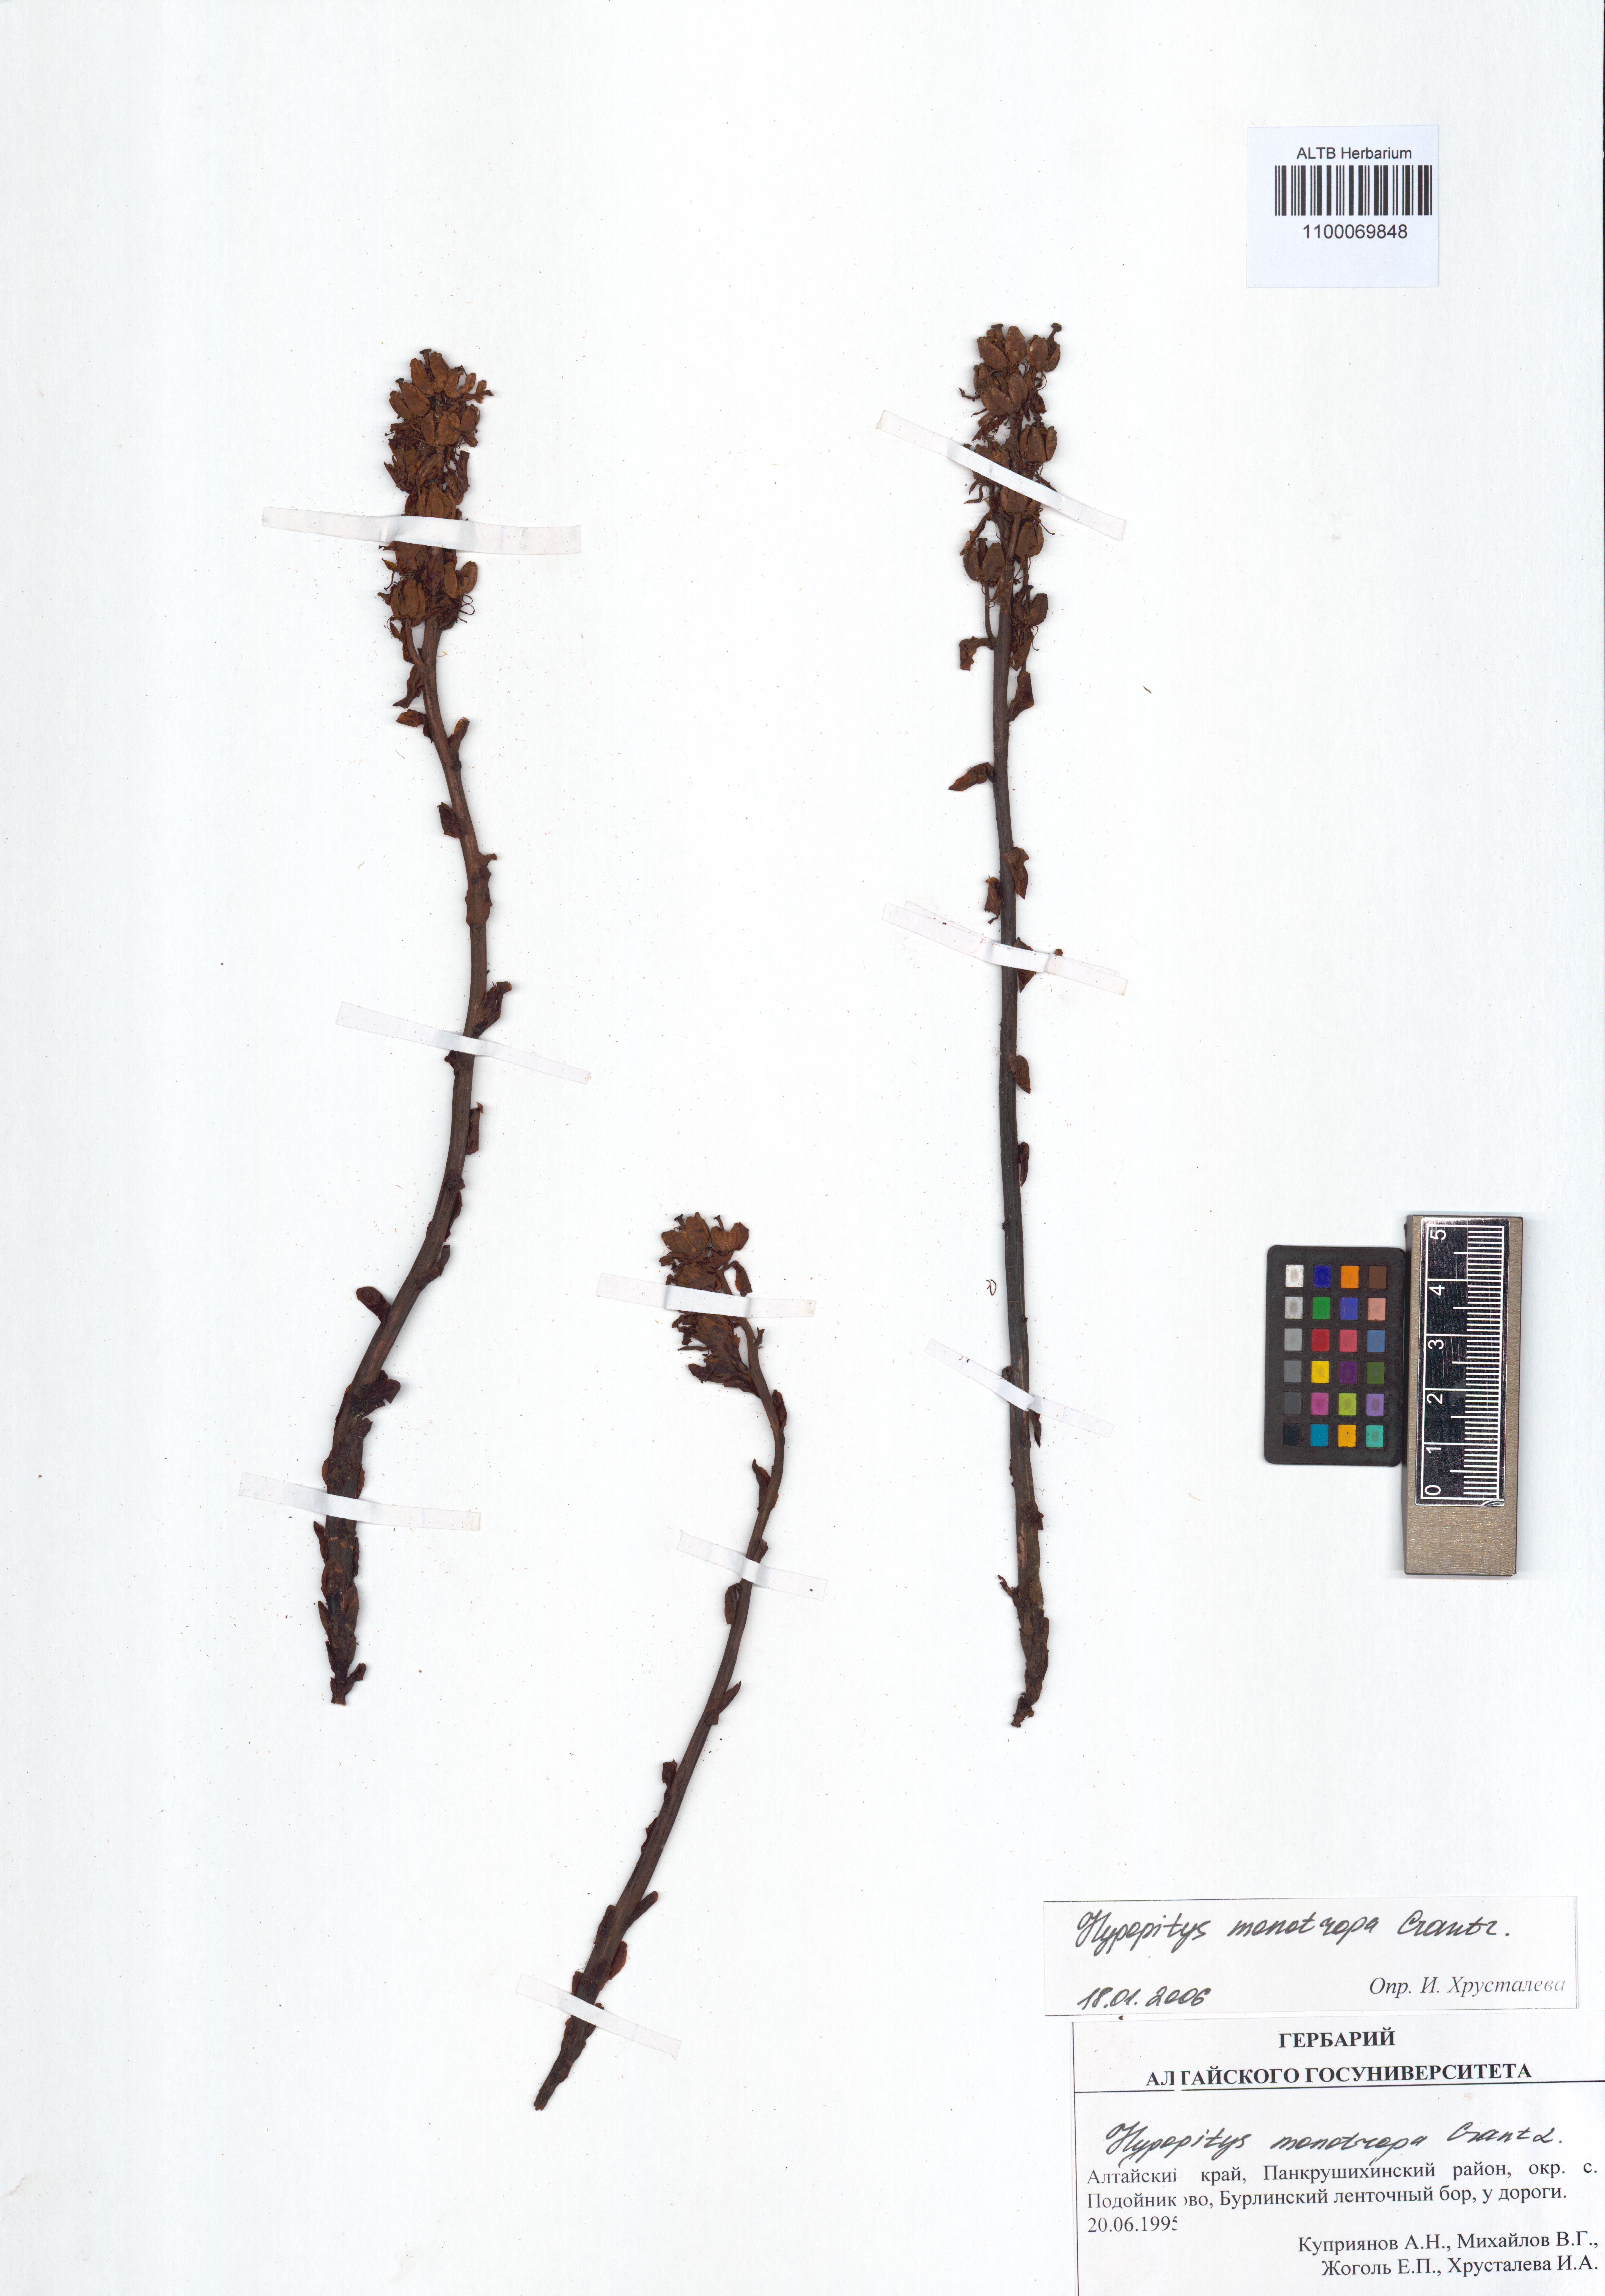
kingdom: Plantae
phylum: Tracheophyta
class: Magnoliopsida
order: Ericales
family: Ericaceae
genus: Hypopitys
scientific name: Hypopitys monotropa
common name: Yellow bird's-nest
